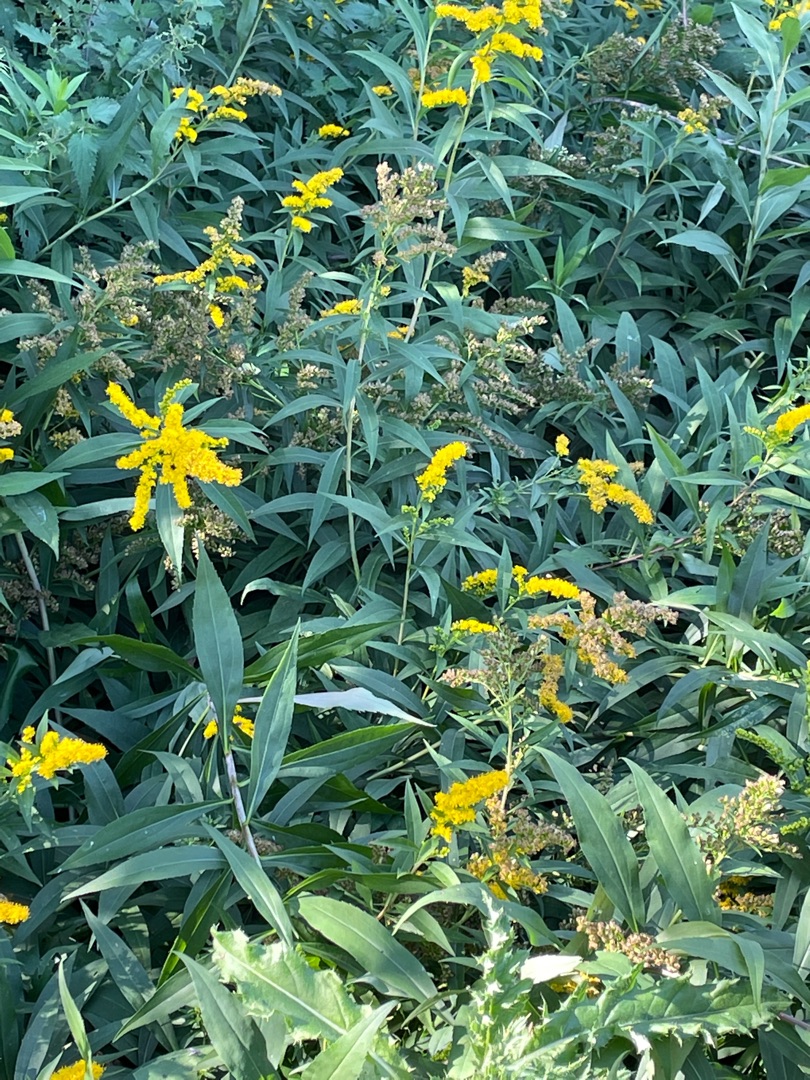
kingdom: Plantae
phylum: Tracheophyta
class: Magnoliopsida
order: Asterales
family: Asteraceae
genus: Solidago
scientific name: Solidago gigantea
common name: Sildig gyldenris
